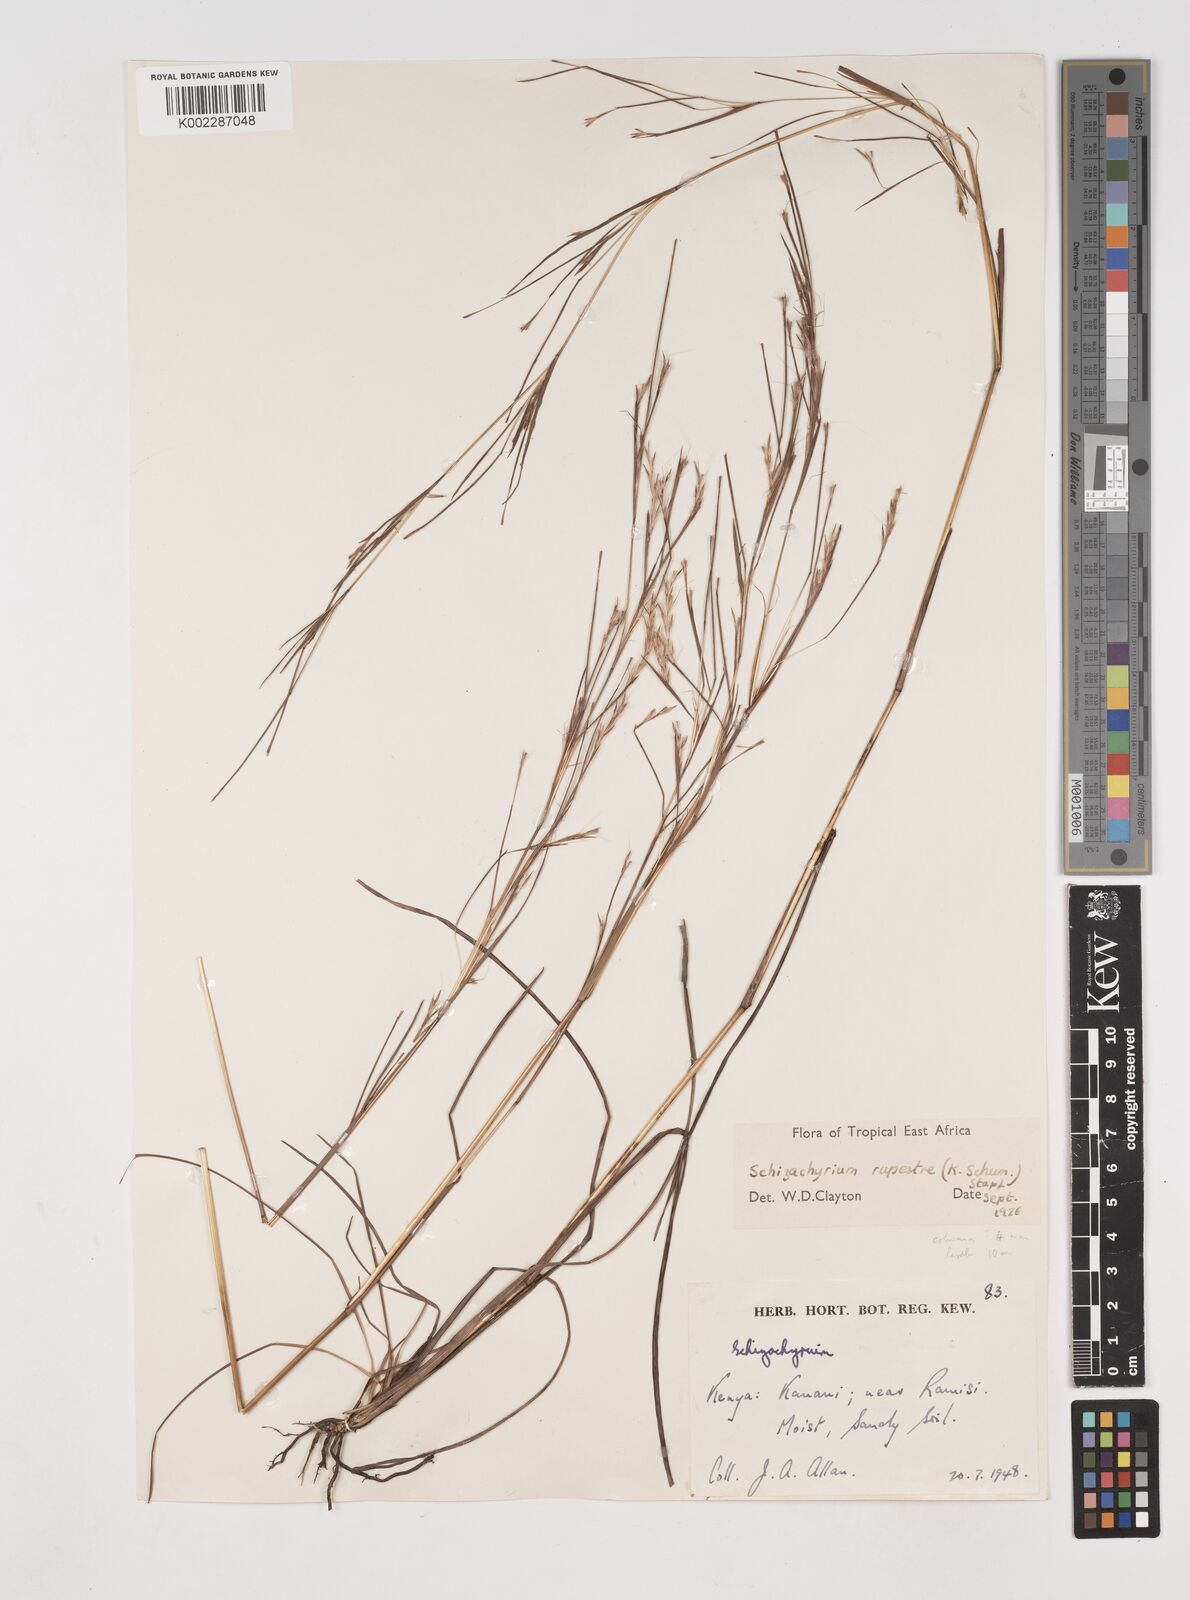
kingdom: Plantae
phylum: Tracheophyta
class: Liliopsida
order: Poales
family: Poaceae
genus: Andropogon
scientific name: Andropogon rupestris
